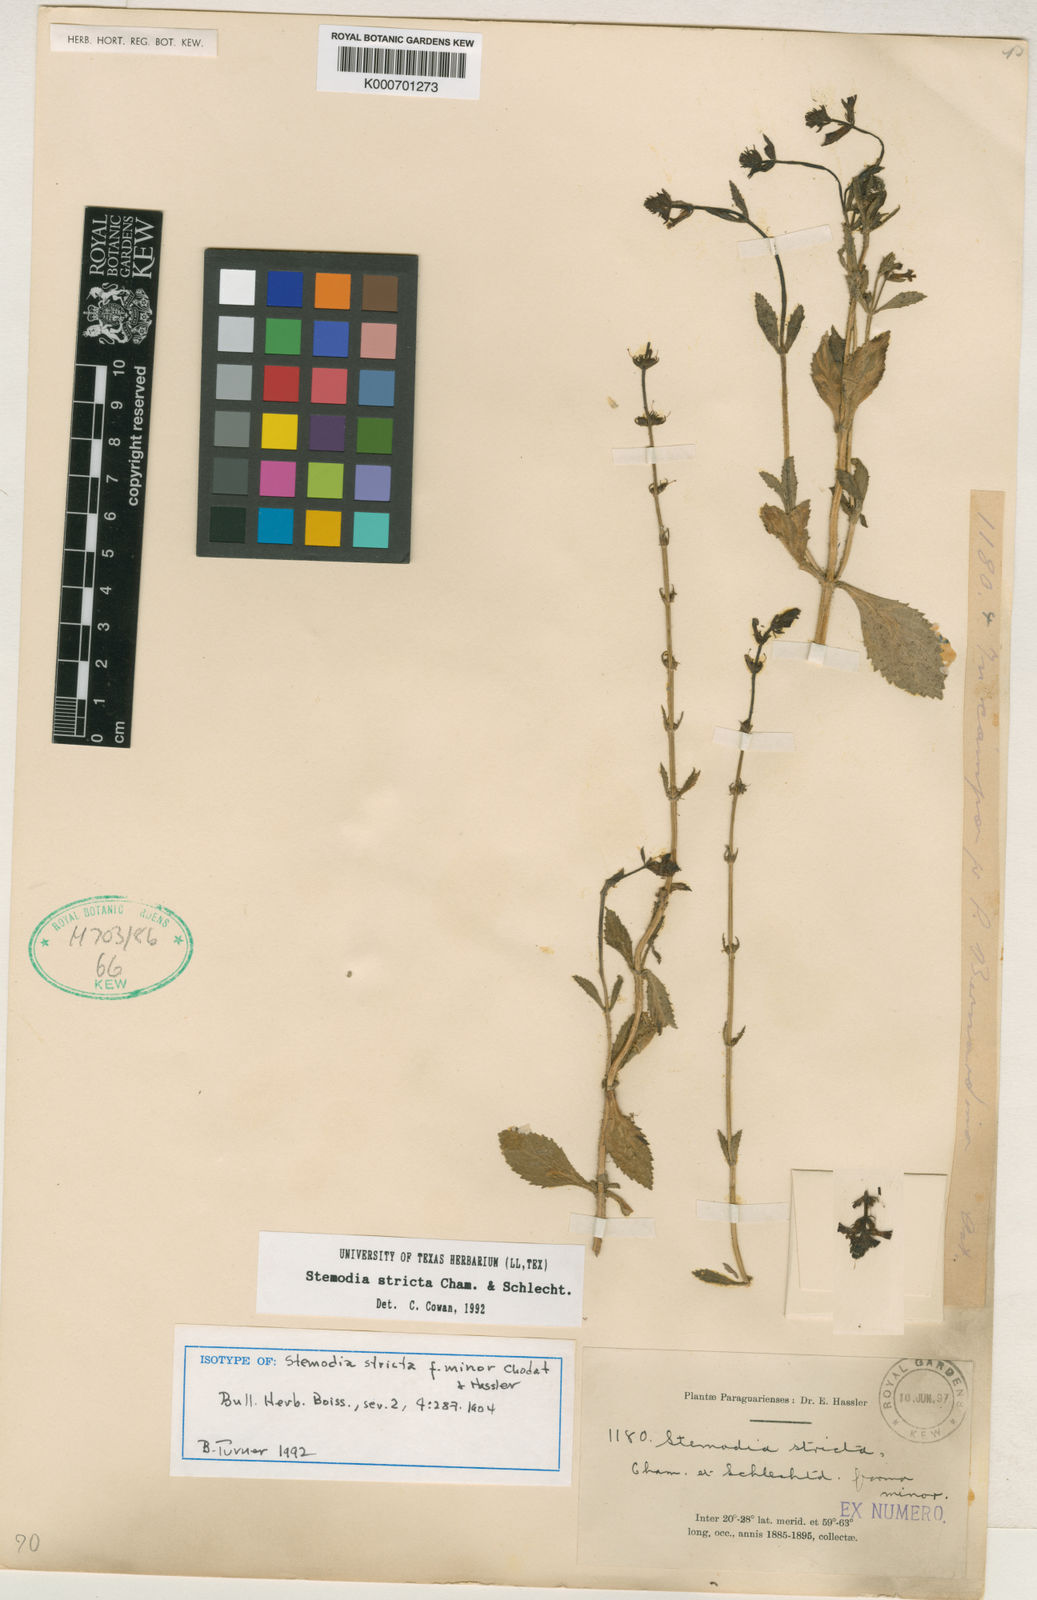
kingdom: Plantae
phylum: Tracheophyta
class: Magnoliopsida
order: Lamiales
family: Plantaginaceae
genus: Stemodia
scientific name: Stemodia stricta
